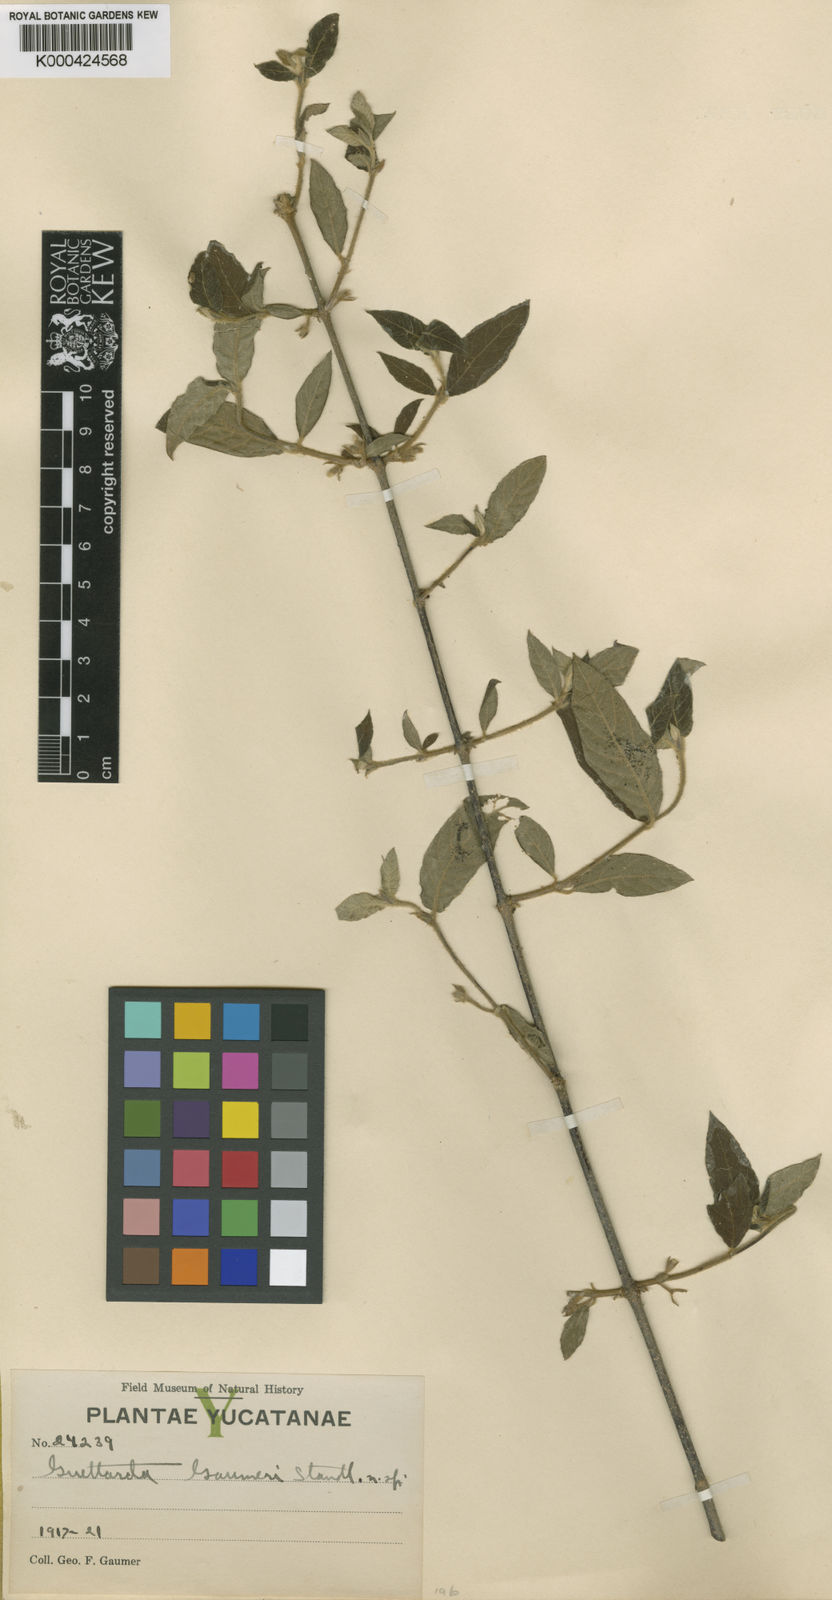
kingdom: Plantae
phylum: Tracheophyta
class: Magnoliopsida
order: Gentianales
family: Rubiaceae
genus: Guettarda
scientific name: Guettarda gaumeri
